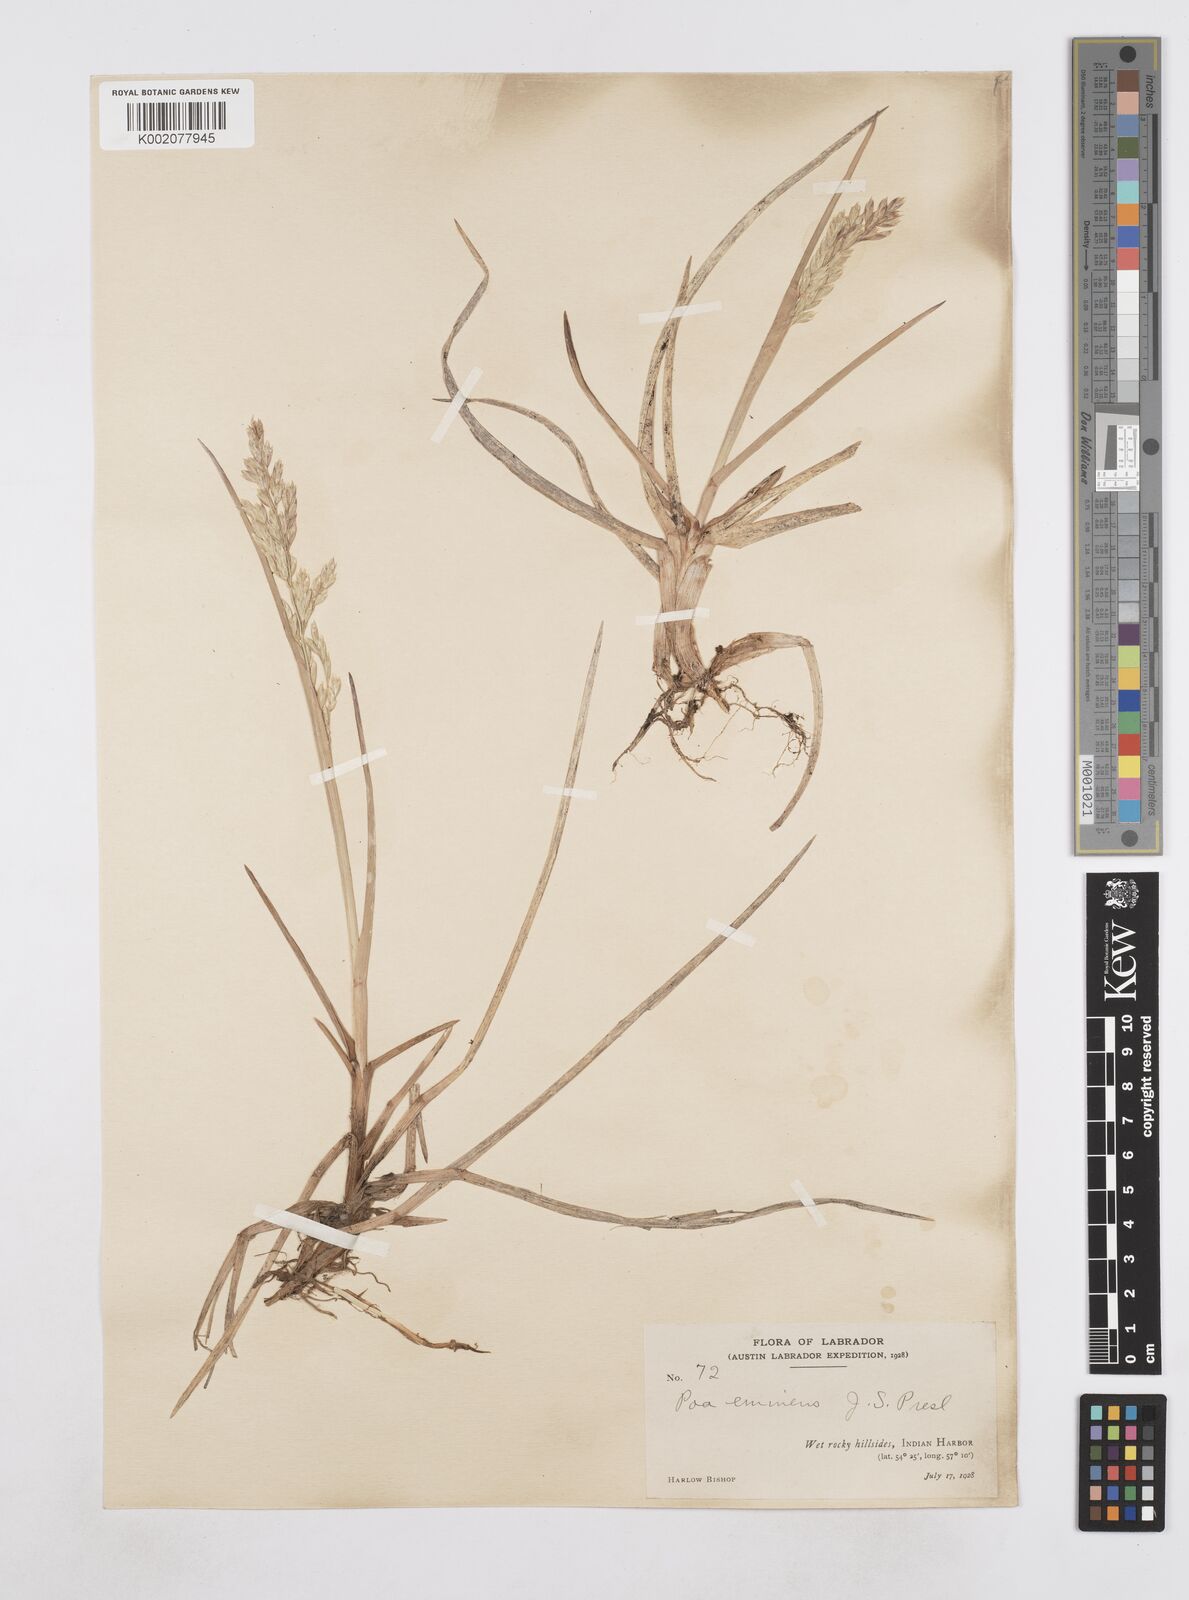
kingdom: Plantae
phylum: Tracheophyta
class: Liliopsida
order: Poales
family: Poaceae
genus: Arctopoa
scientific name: Arctopoa eminens
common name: Eminent bluegrass
